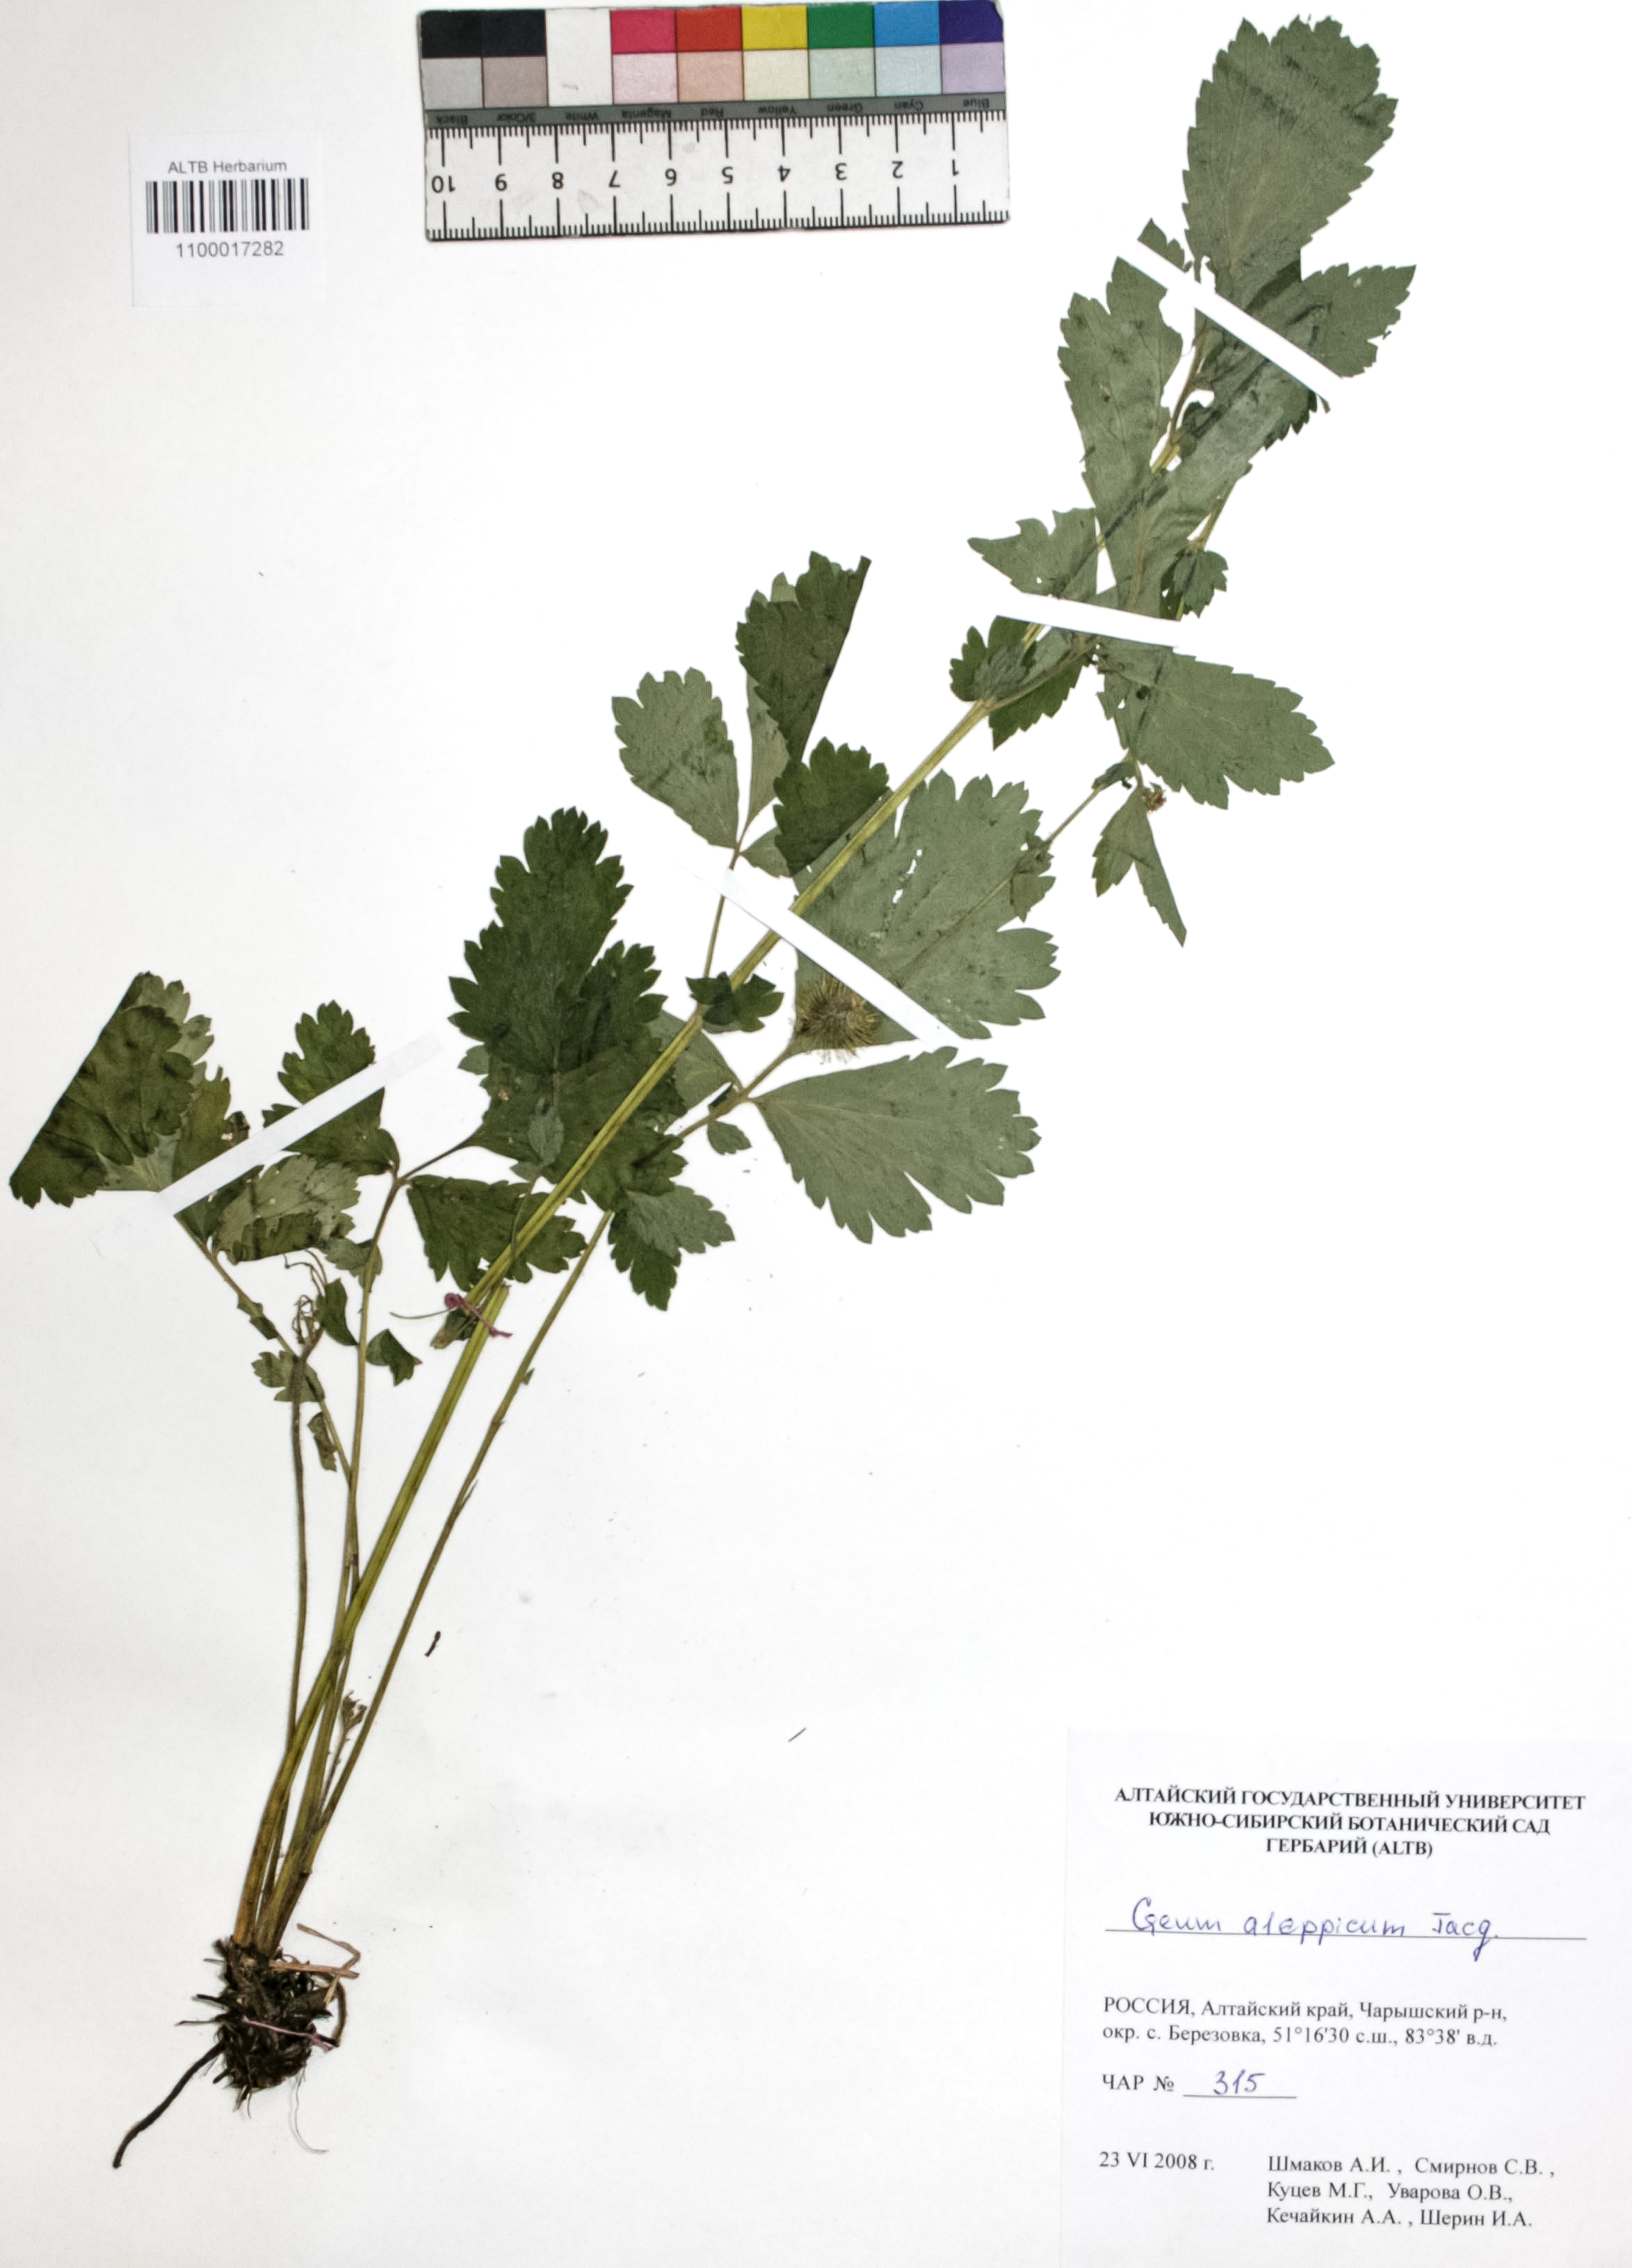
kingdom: Plantae
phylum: Tracheophyta
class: Magnoliopsida
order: Rosales
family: Rosaceae
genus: Geum
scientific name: Geum aleppicum
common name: Yellow avens
